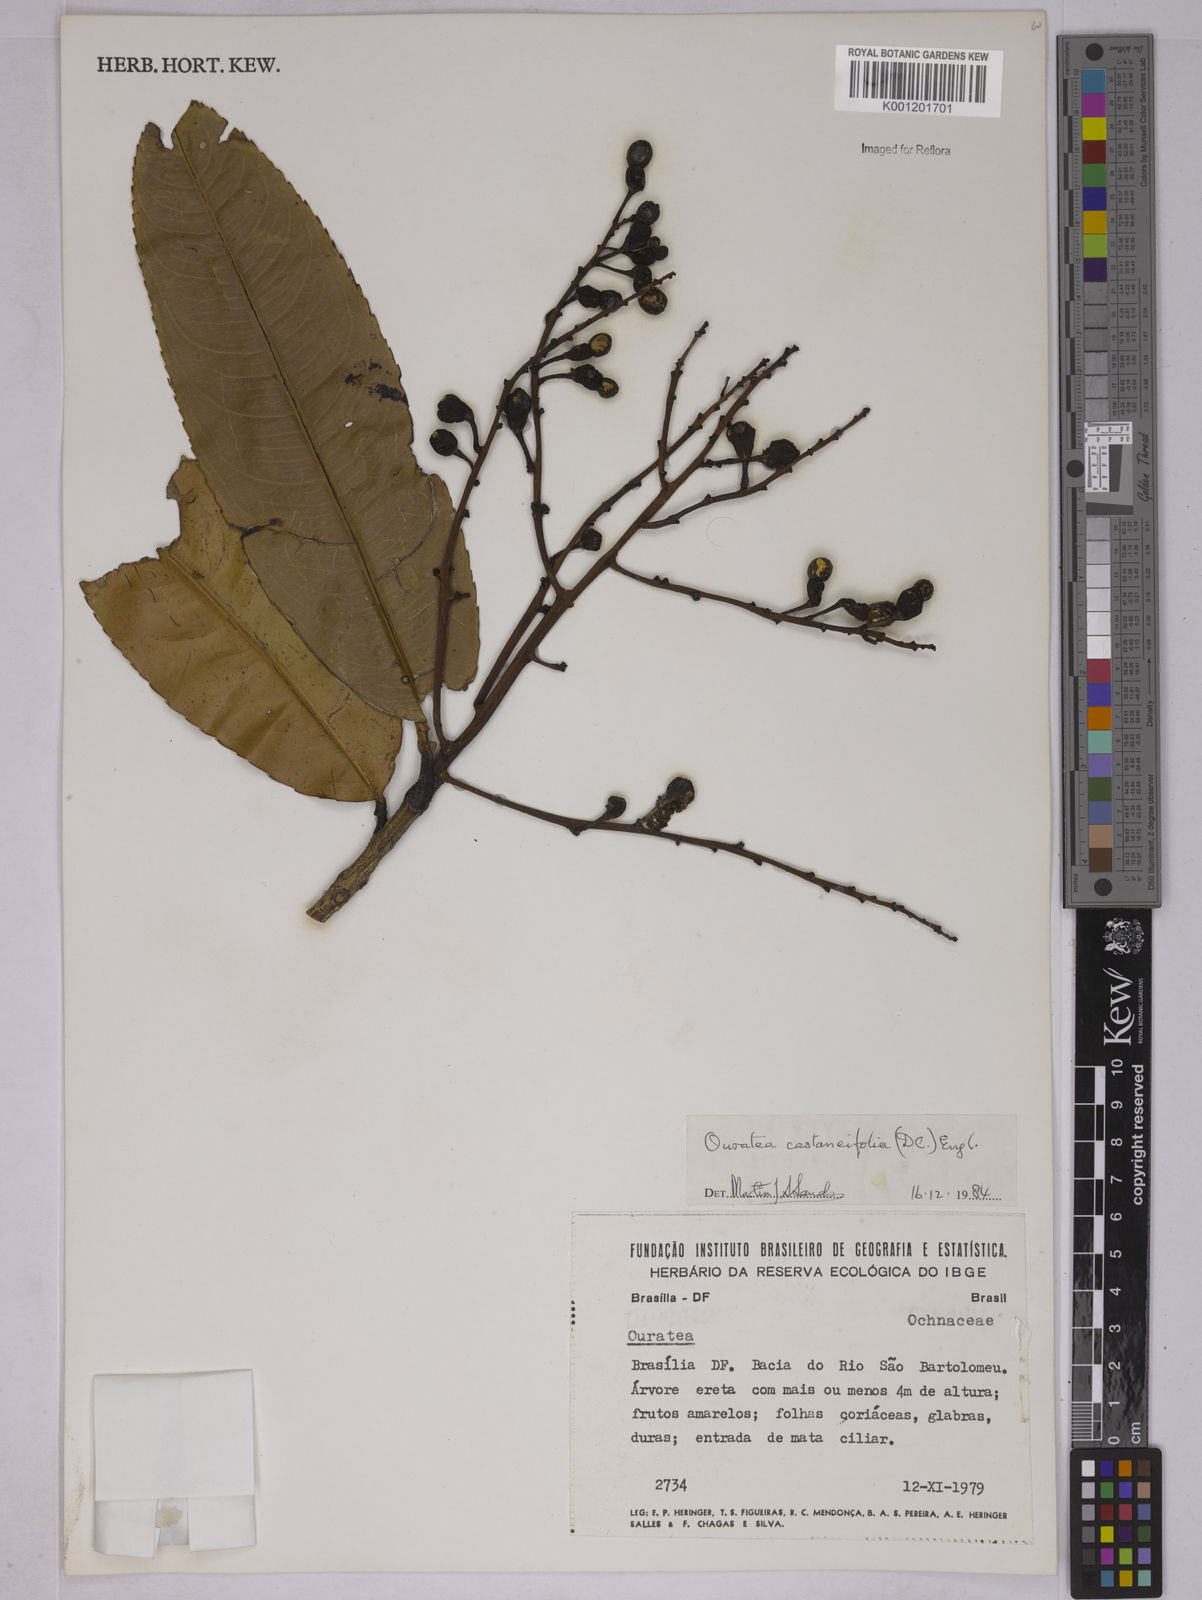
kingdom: Plantae
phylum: Tracheophyta
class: Magnoliopsida
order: Malpighiales
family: Ochnaceae
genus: Ouratea
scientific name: Ouratea castaneifolia
